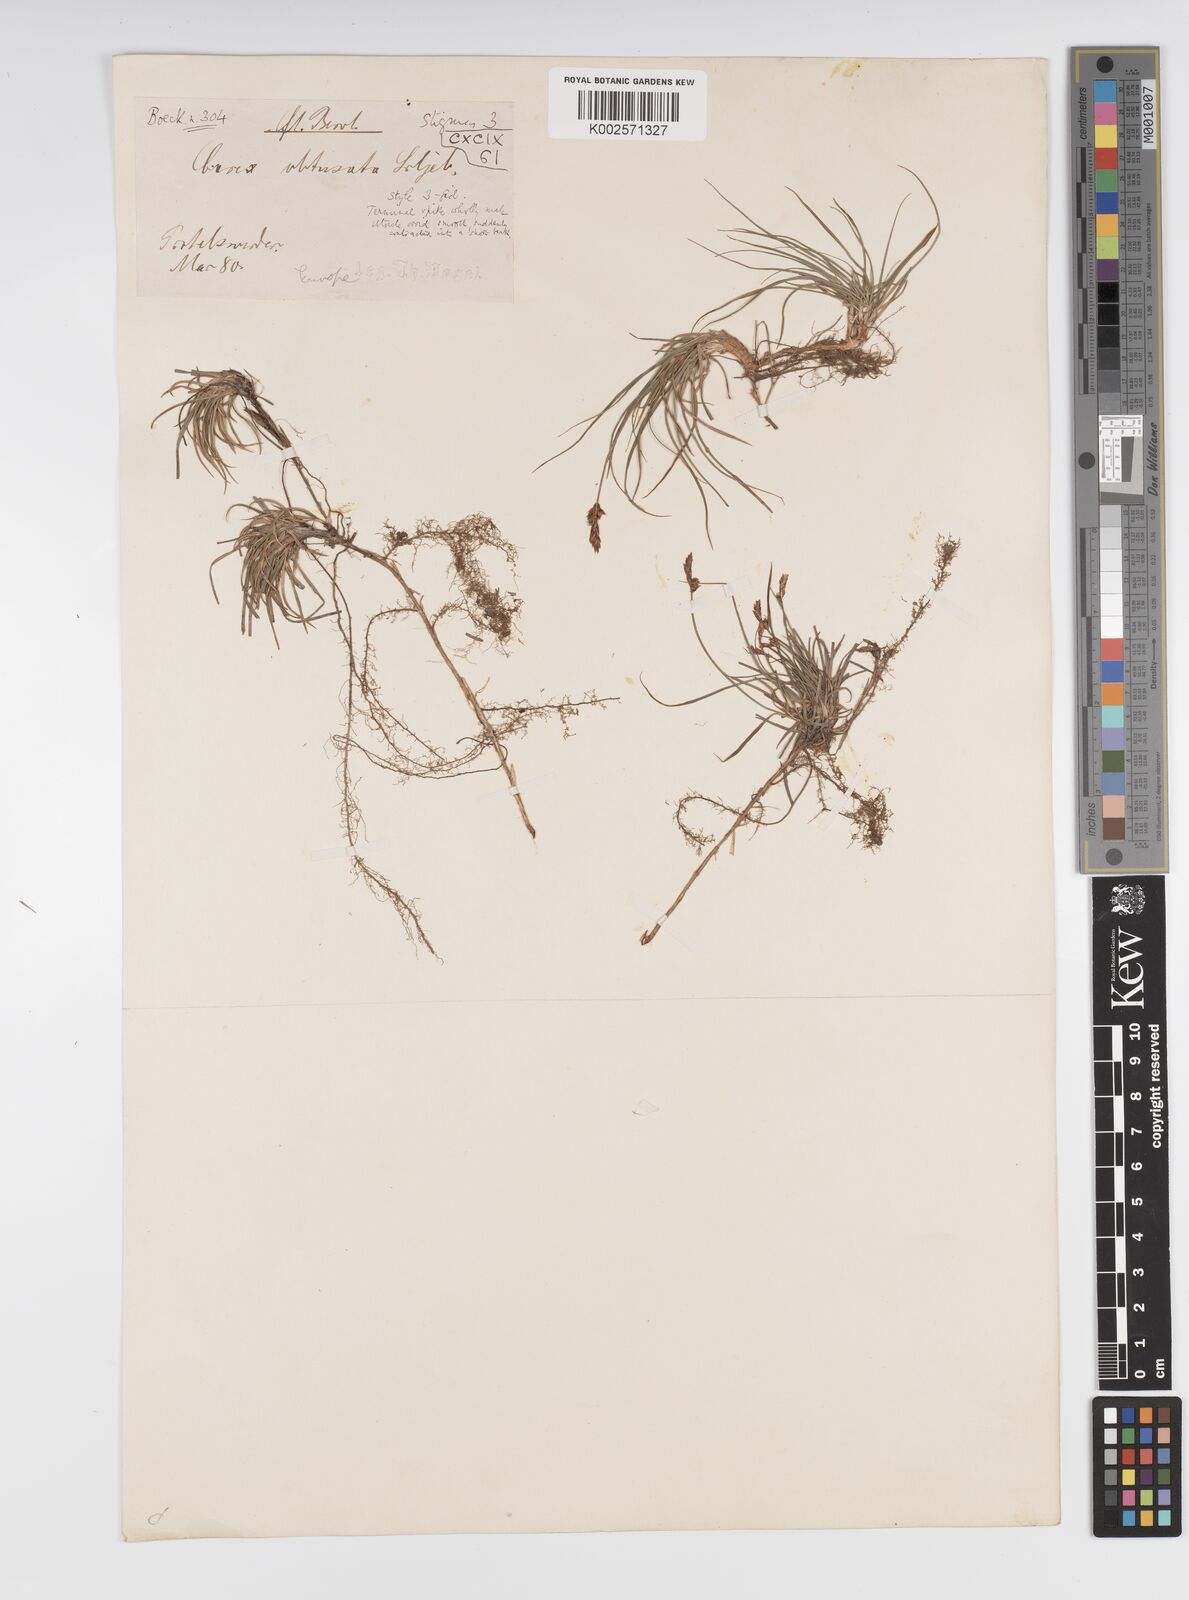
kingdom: Plantae
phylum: Tracheophyta
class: Liliopsida
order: Poales
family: Cyperaceae
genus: Carex
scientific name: Carex supina
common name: Lying-back sedge
